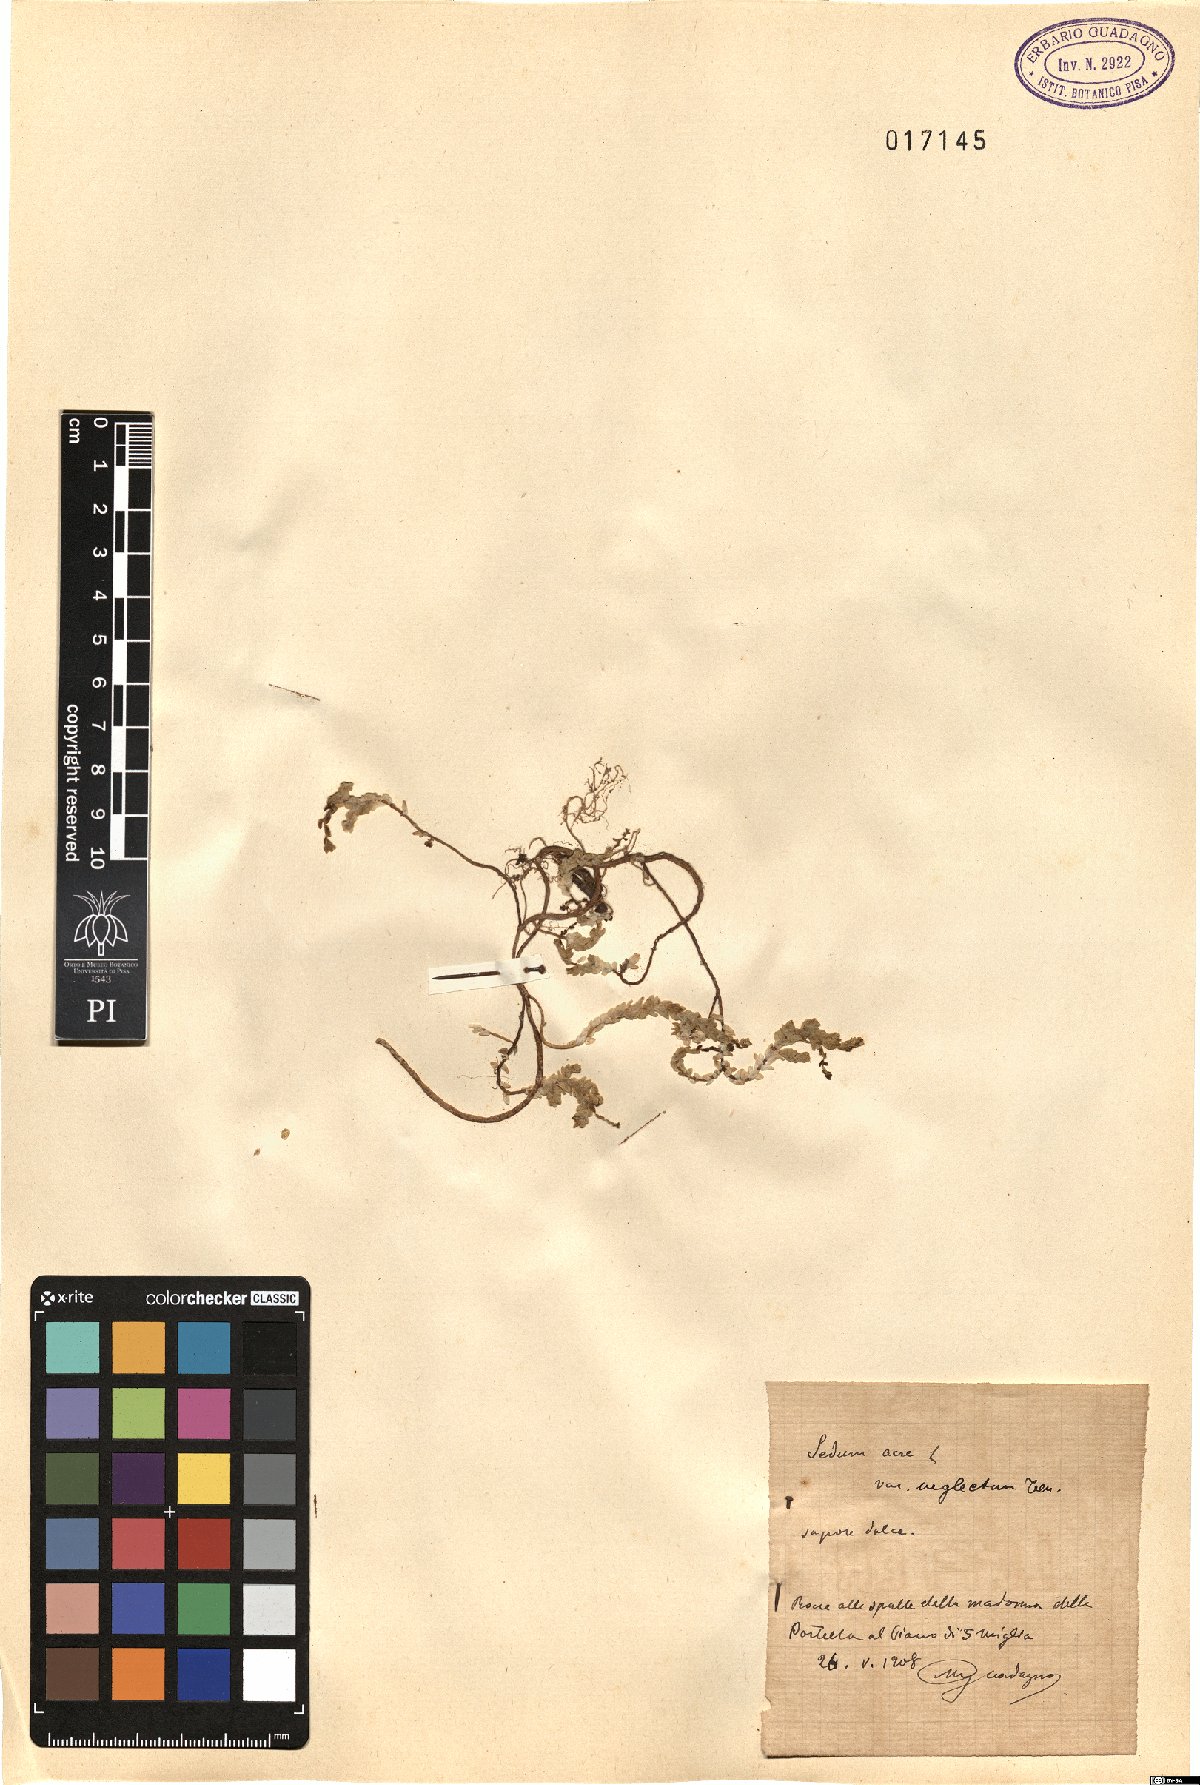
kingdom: Plantae
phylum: Tracheophyta
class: Magnoliopsida
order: Saxifragales
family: Crassulaceae
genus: Sedum
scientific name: Sedum acre
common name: Biting stonecrop
